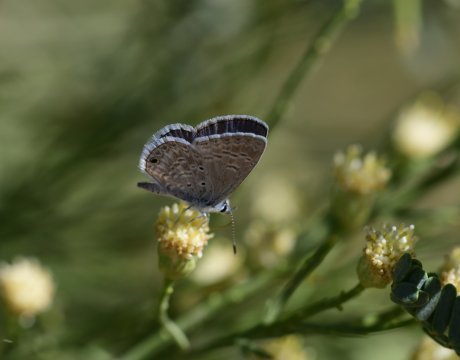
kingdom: Animalia
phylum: Arthropoda
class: Insecta
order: Lepidoptera
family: Lycaenidae
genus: Hemiargus
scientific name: Hemiargus ceraunus
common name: Ceraunus Blue
